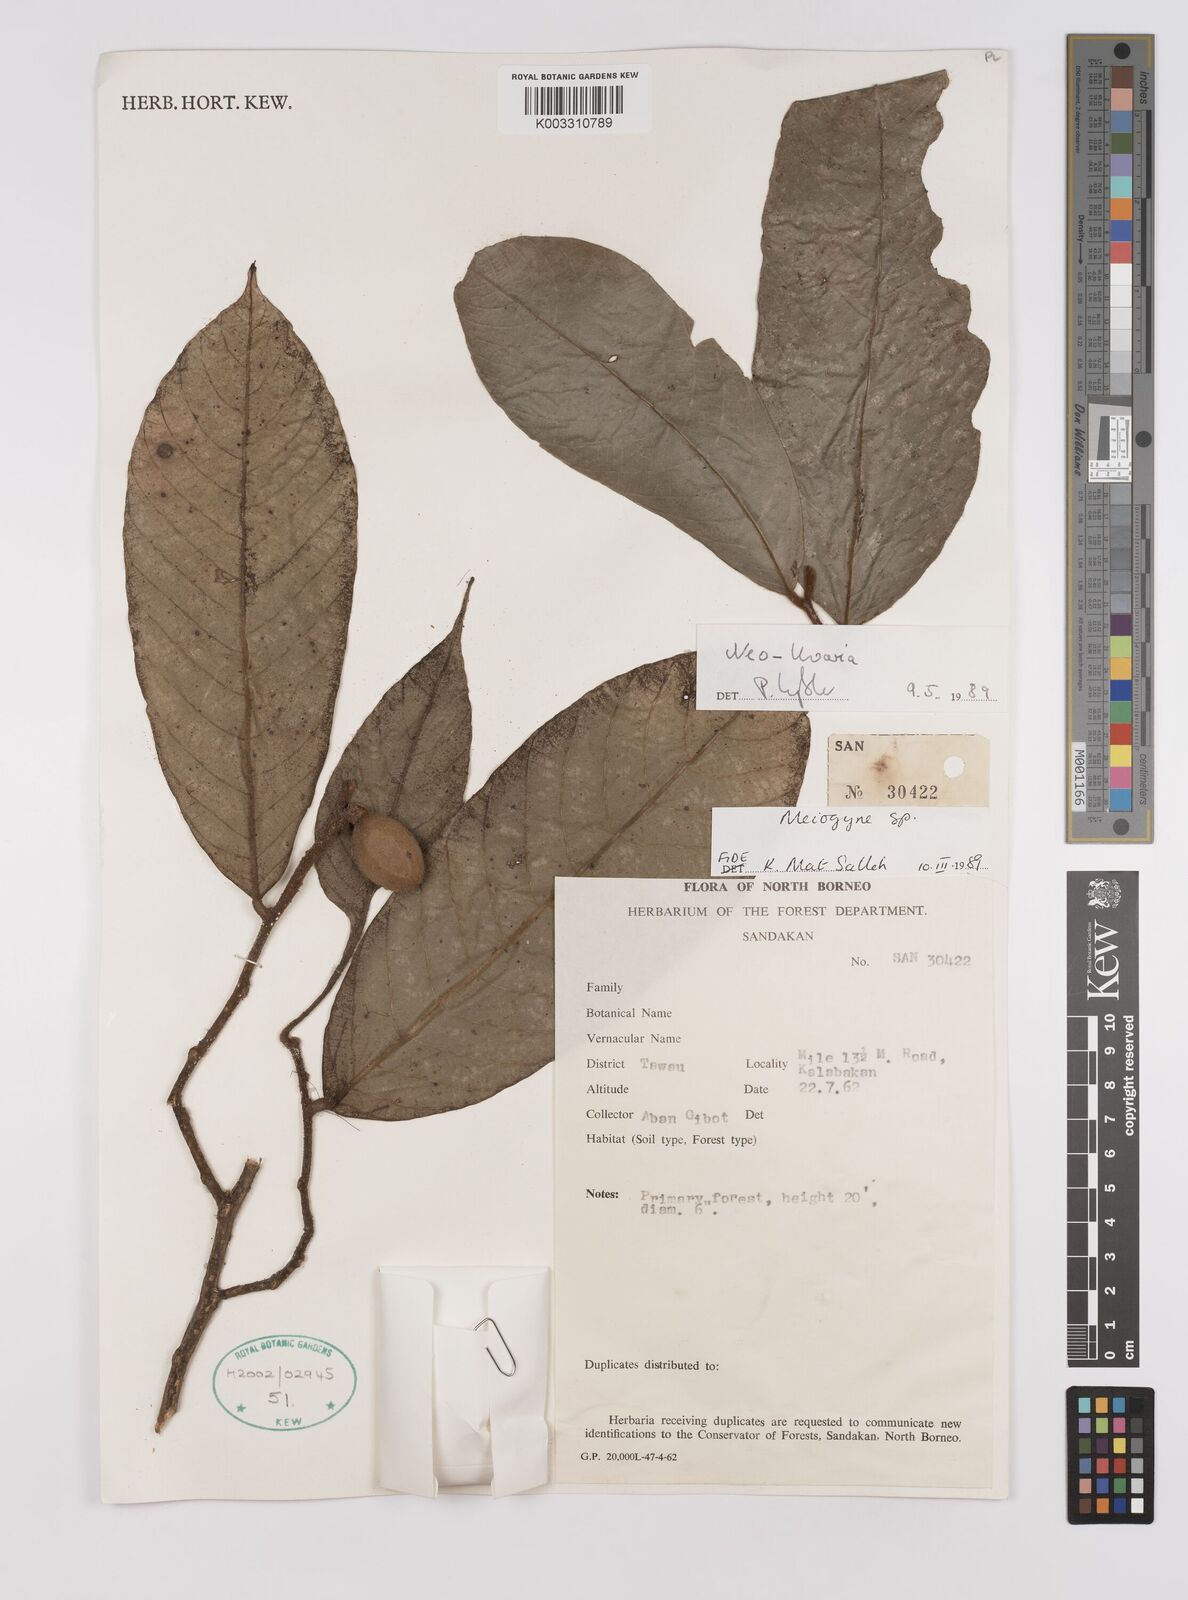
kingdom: Plantae
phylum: Tracheophyta
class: Magnoliopsida
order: Magnoliales
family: Annonaceae
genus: Neo-uvaria
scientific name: Neo-uvaria
